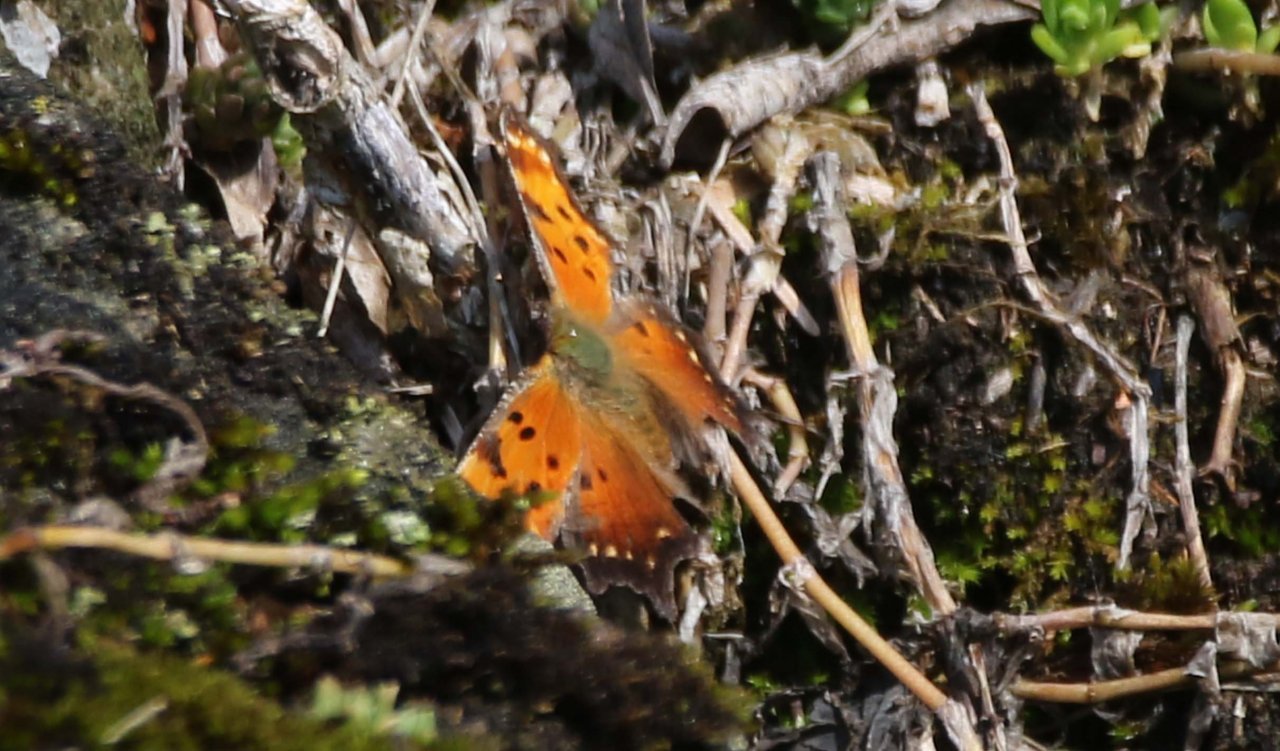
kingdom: Animalia
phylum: Arthropoda
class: Insecta
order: Lepidoptera
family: Nymphalidae
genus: Polygonia
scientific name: Polygonia progne
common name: Gray Comma
